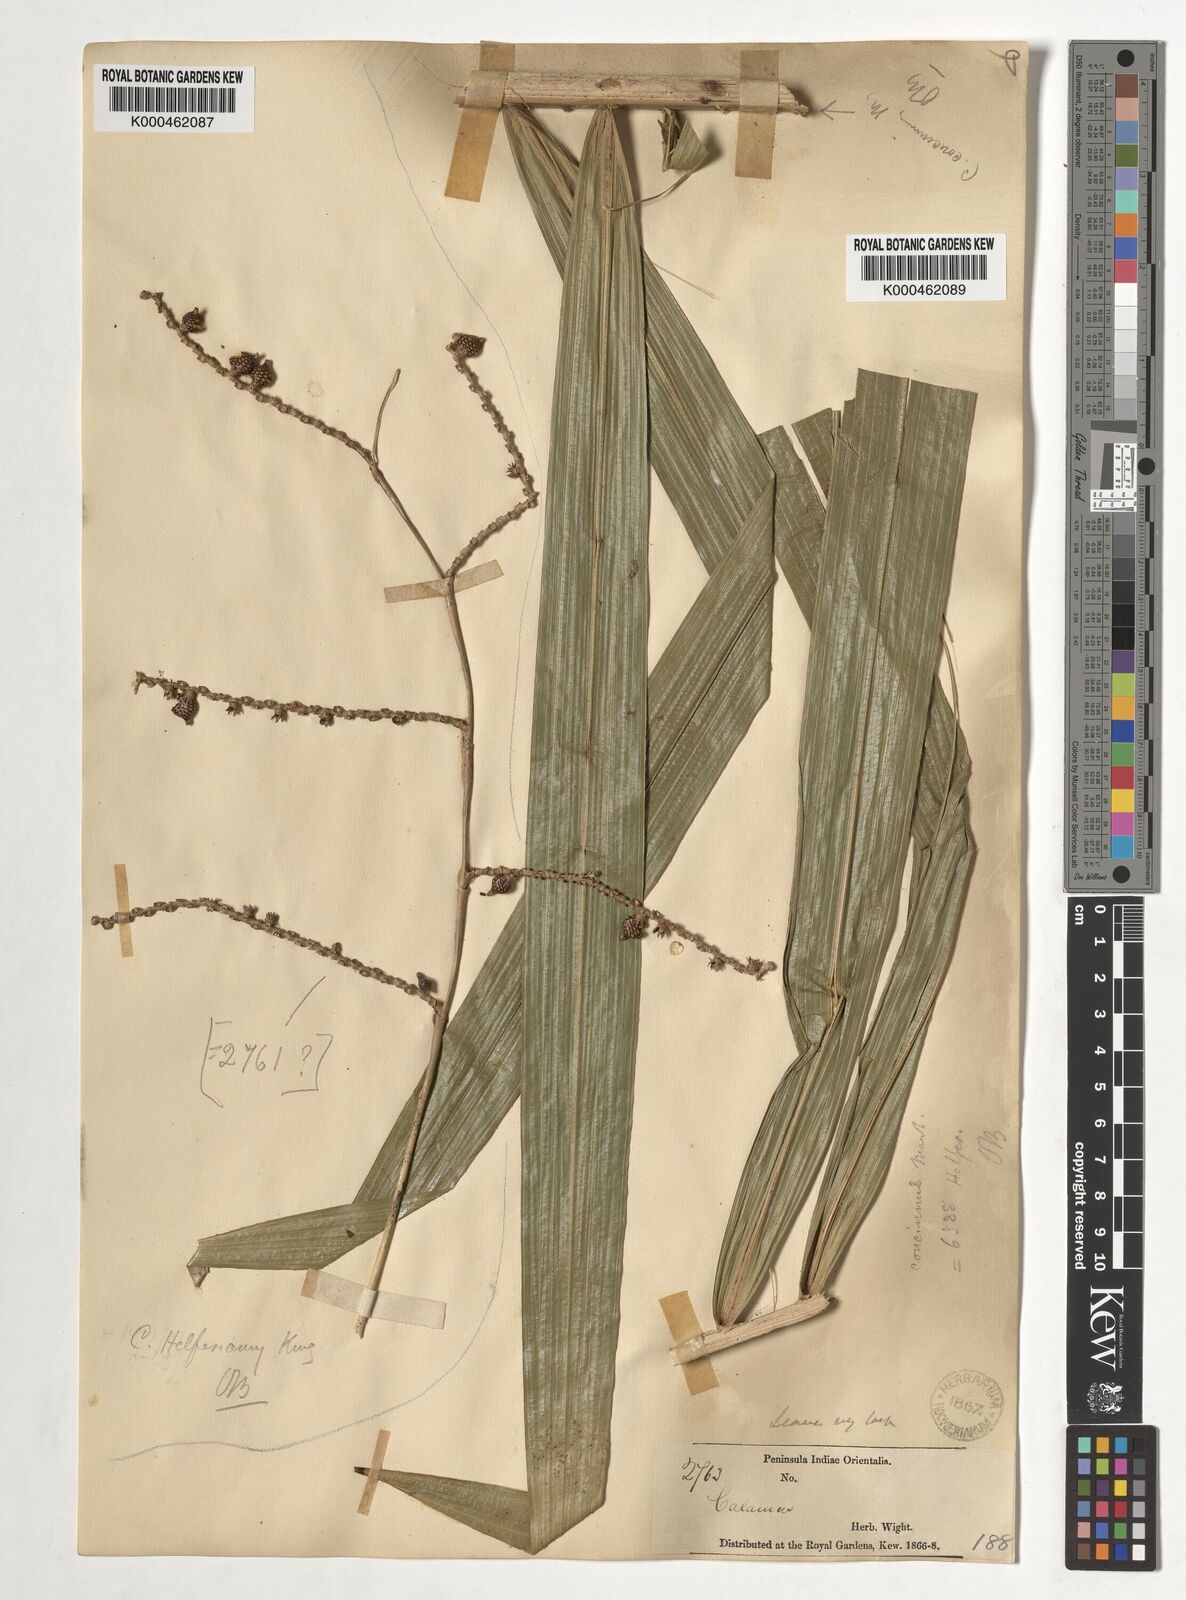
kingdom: Plantae
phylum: Tracheophyta
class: Liliopsida
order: Arecales
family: Arecaceae
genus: Calamus
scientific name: Calamus concinnus
